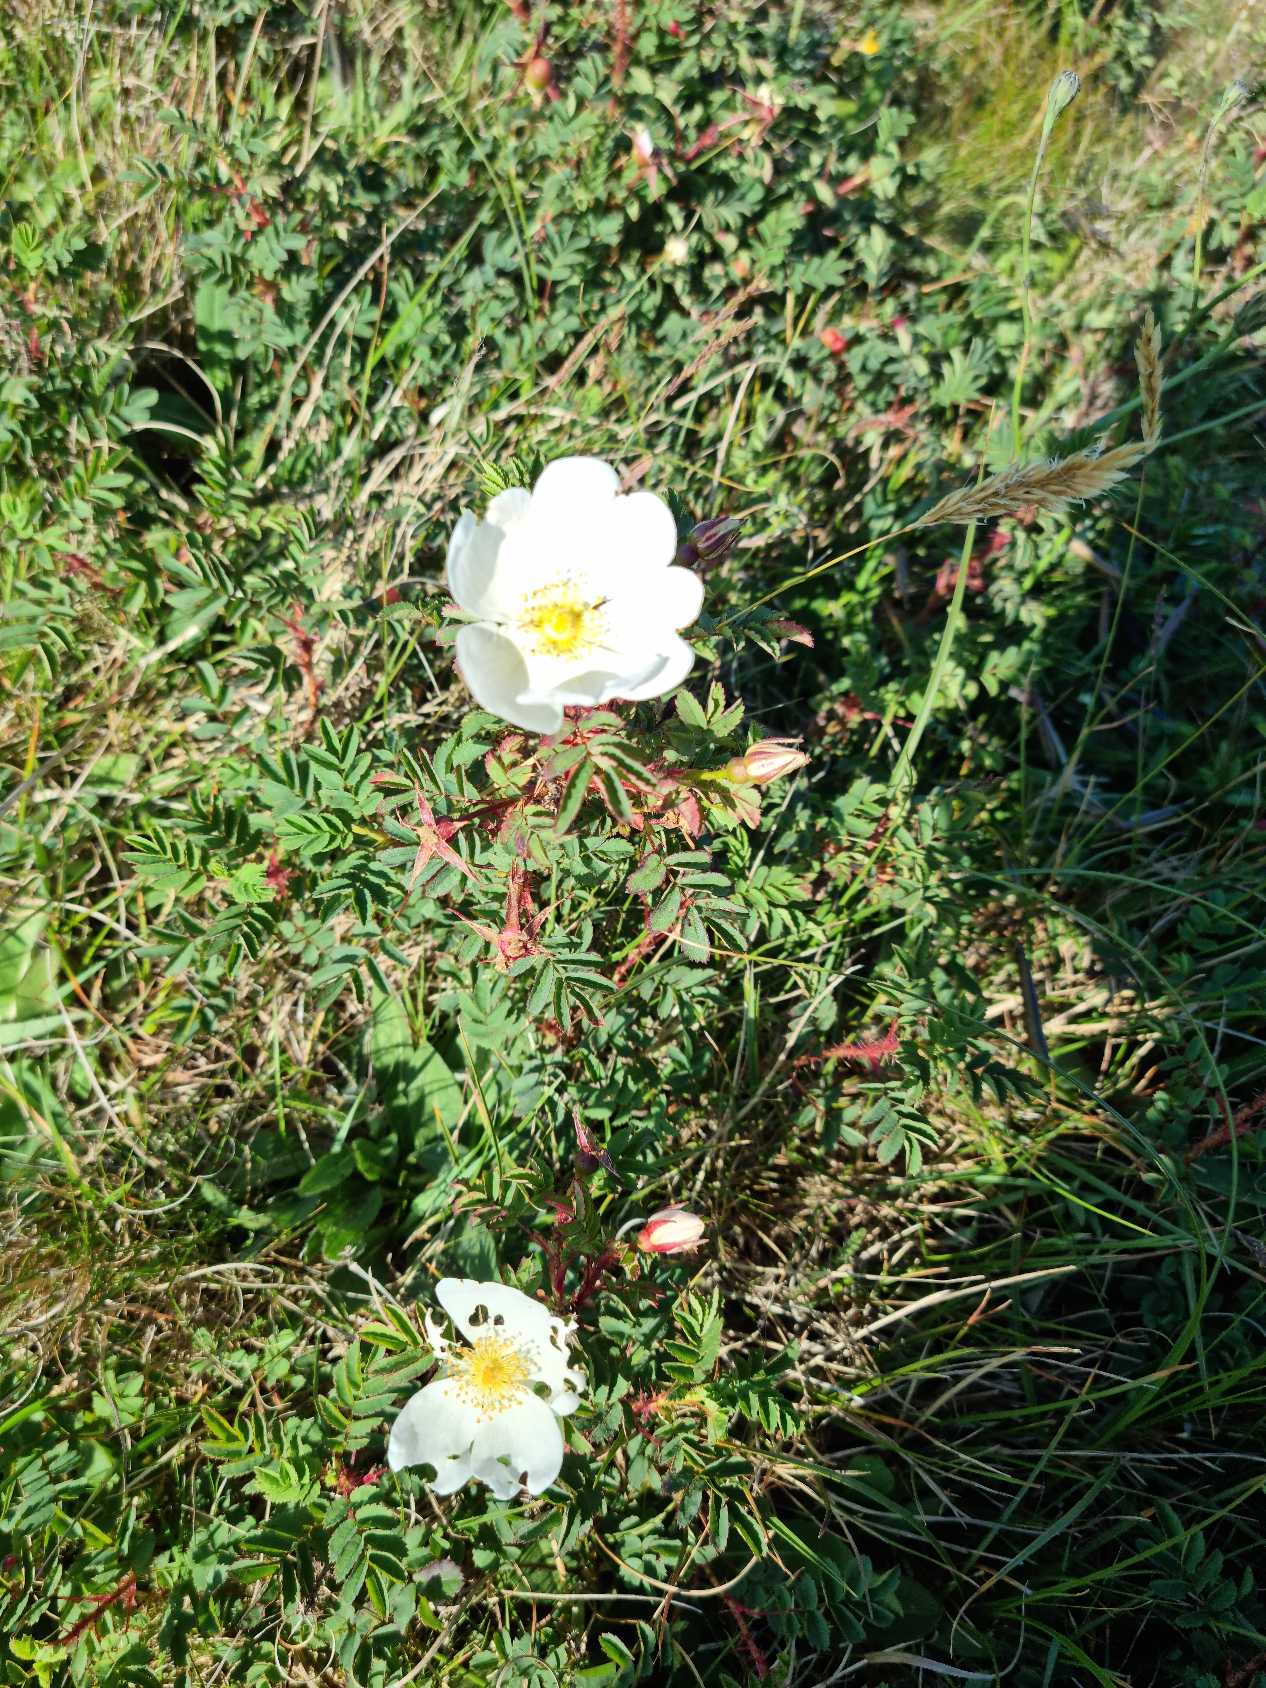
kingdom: Plantae
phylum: Tracheophyta
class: Magnoliopsida
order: Rosales
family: Rosaceae
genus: Rosa
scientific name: Rosa spinosissima
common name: Klit-rose
